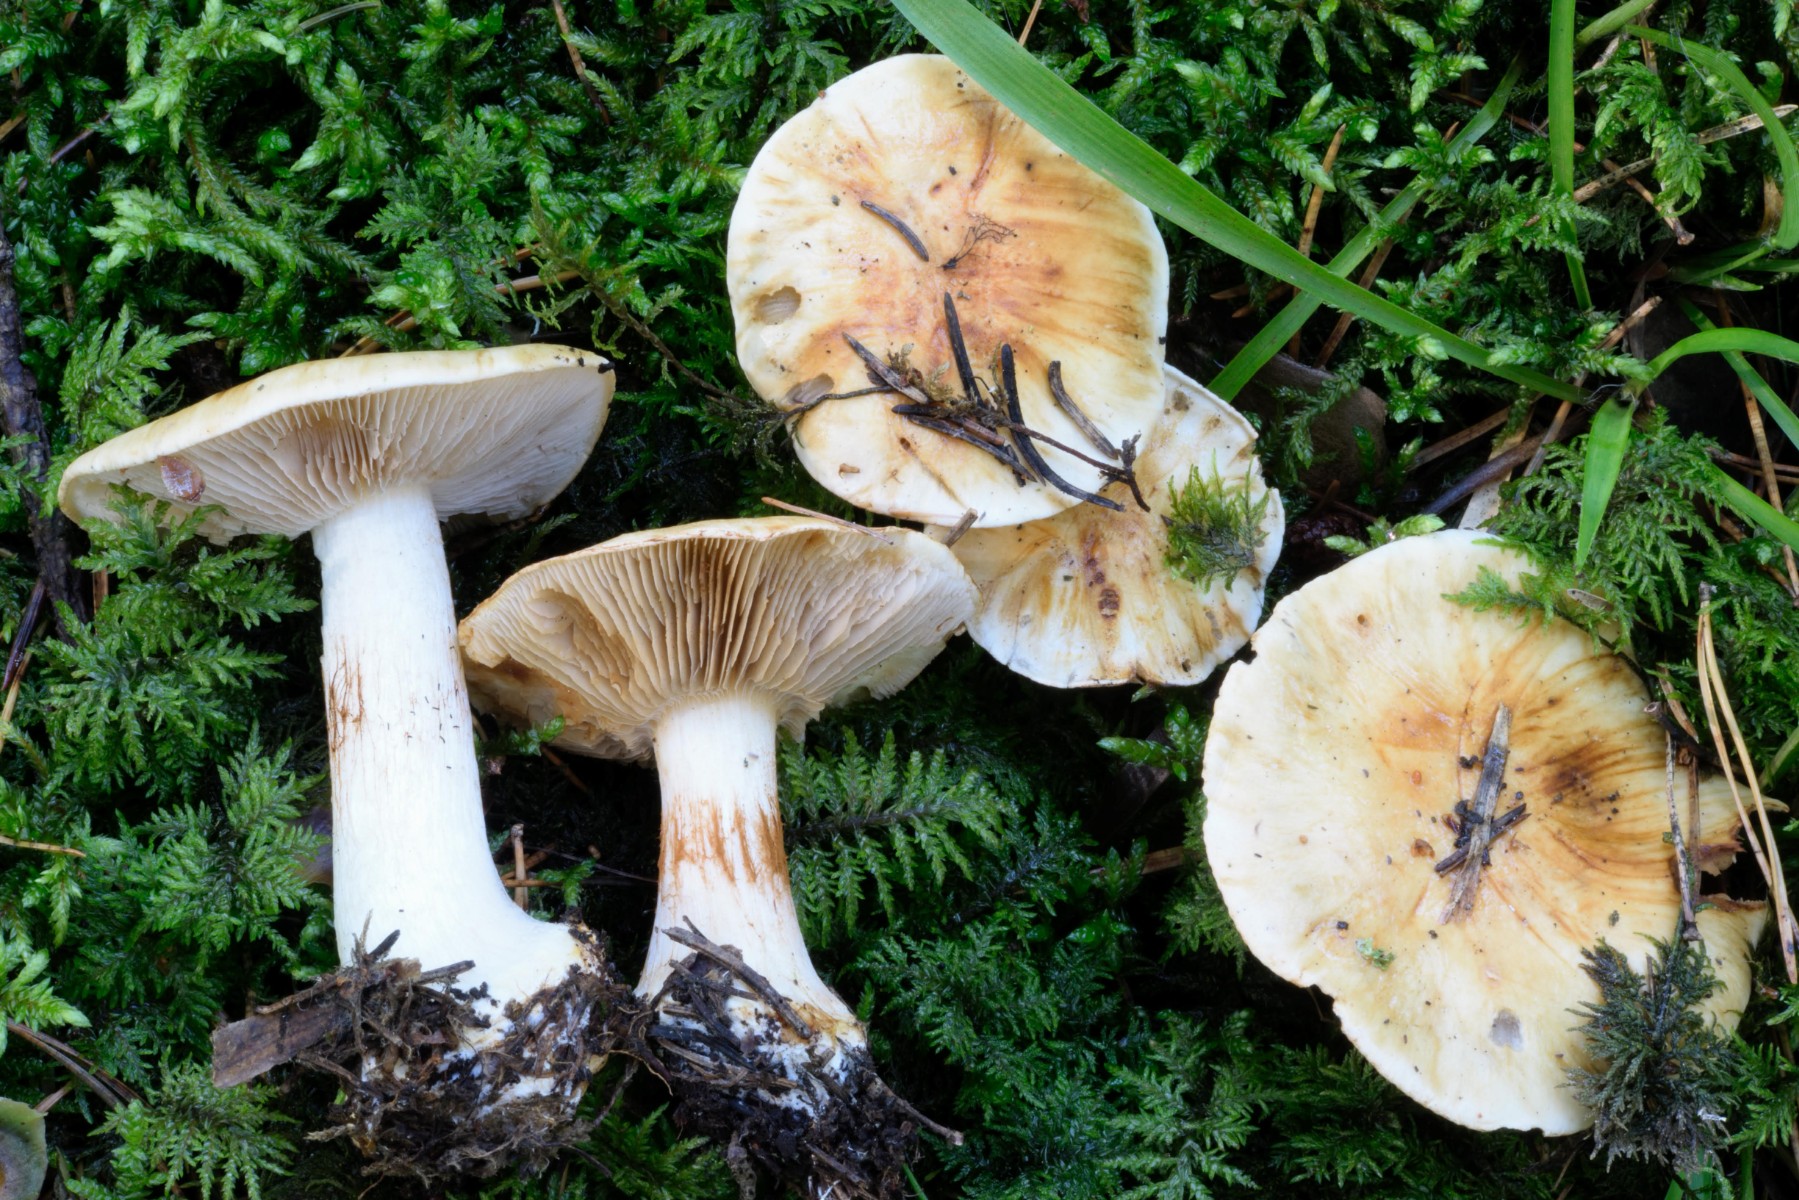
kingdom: Fungi
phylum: Basidiomycota
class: Agaricomycetes
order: Agaricales
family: Cortinariaceae
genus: Cortinarius
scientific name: Cortinarius
